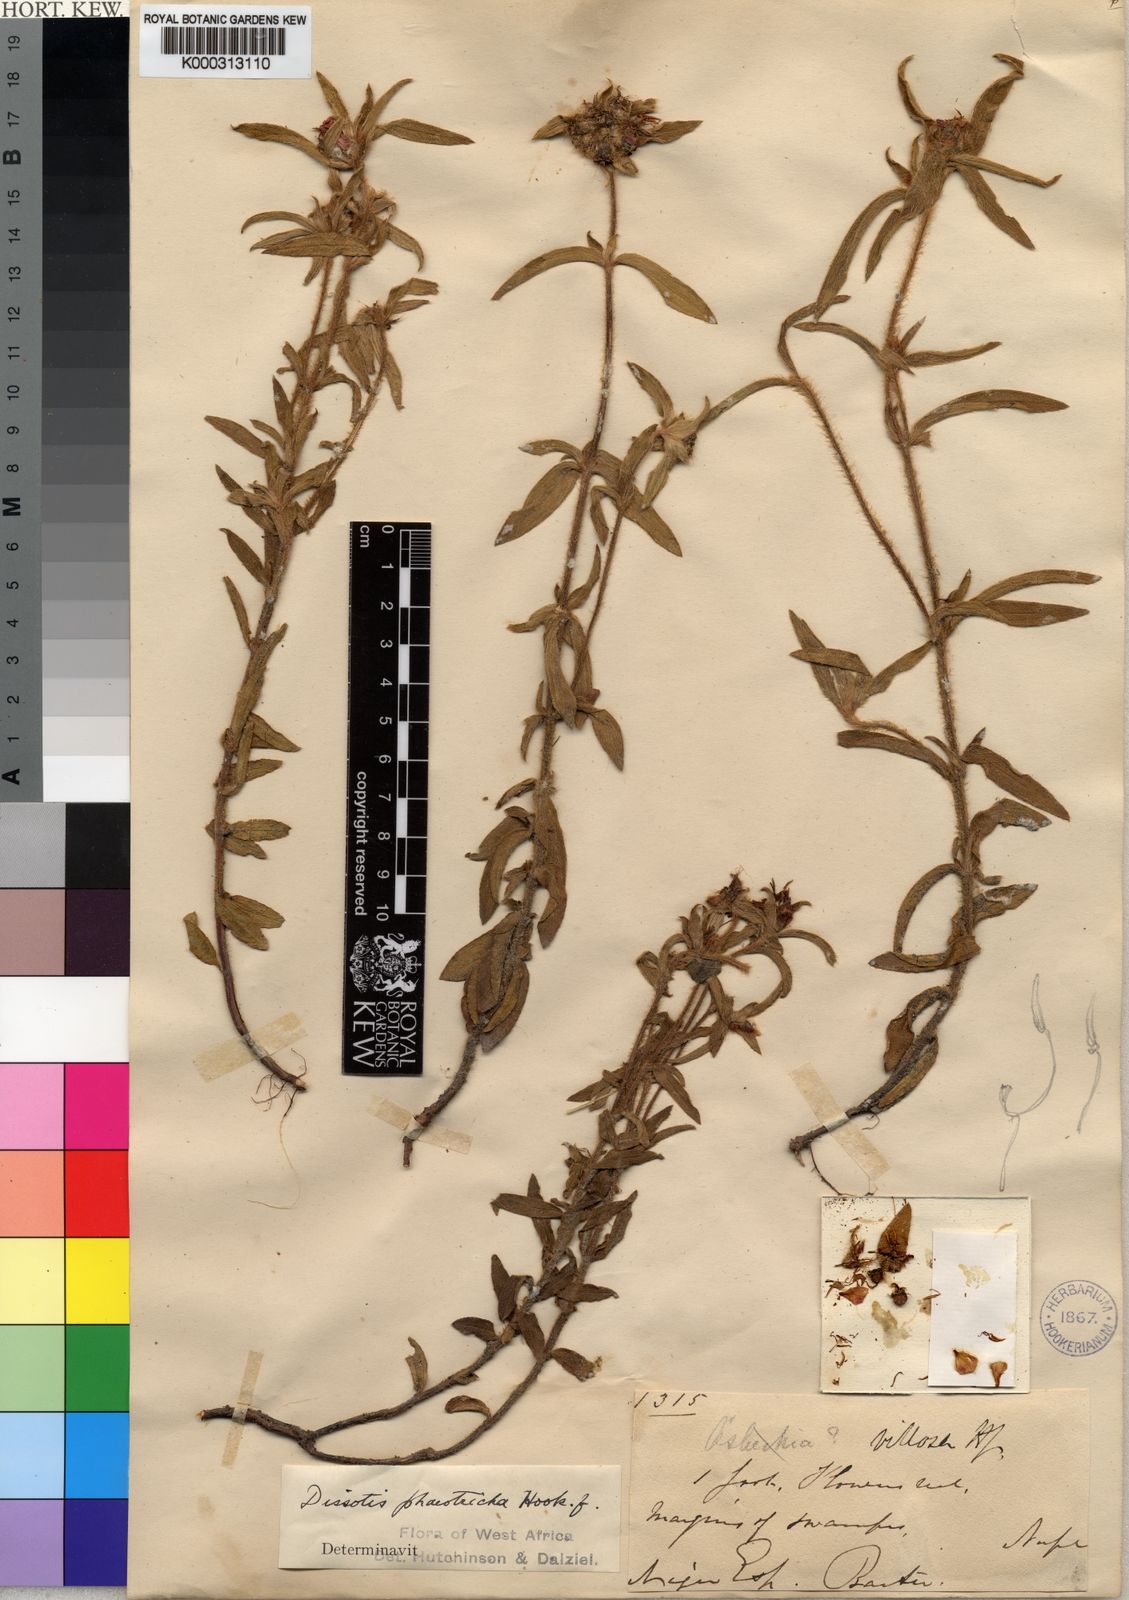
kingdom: Plantae
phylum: Tracheophyta
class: Magnoliopsida
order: Myrtales
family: Melastomataceae
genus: Antherotoma
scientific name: Antherotoma
